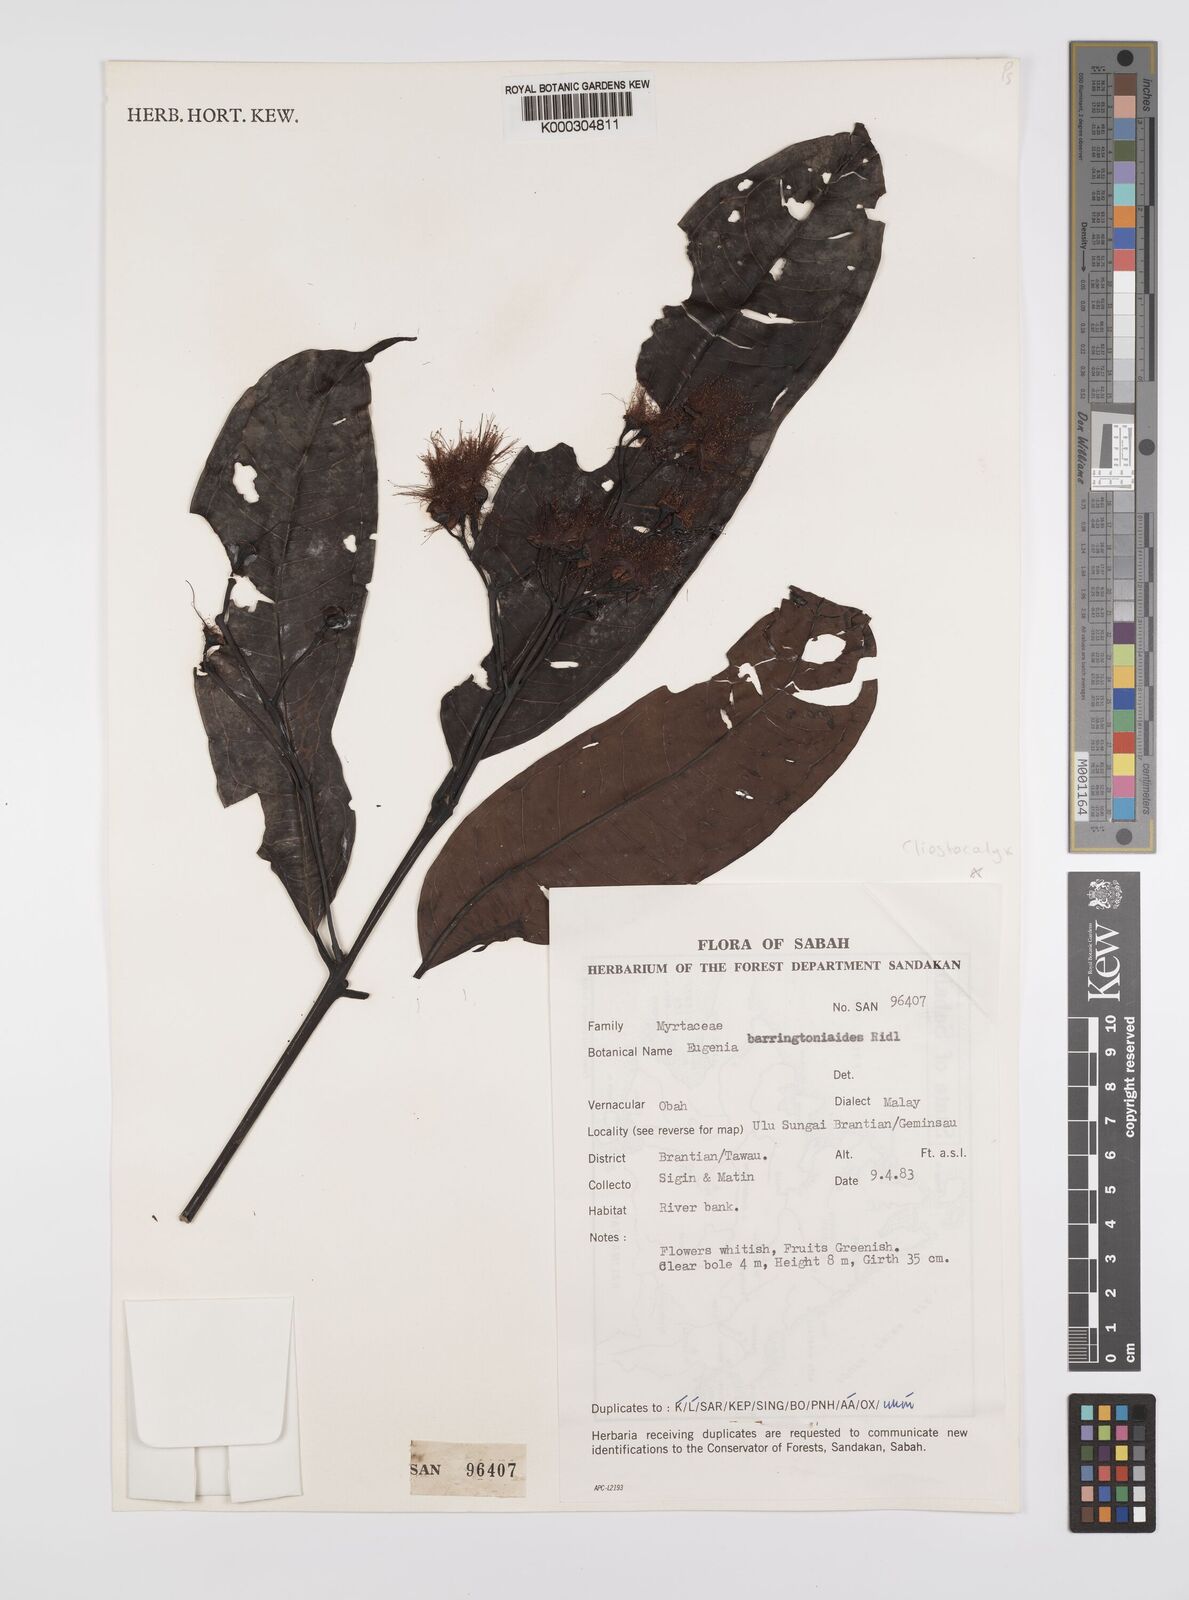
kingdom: Plantae
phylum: Tracheophyta
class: Magnoliopsida
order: Myrtales
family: Myrtaceae
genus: Syzygium
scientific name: Syzygium barringtonioides
